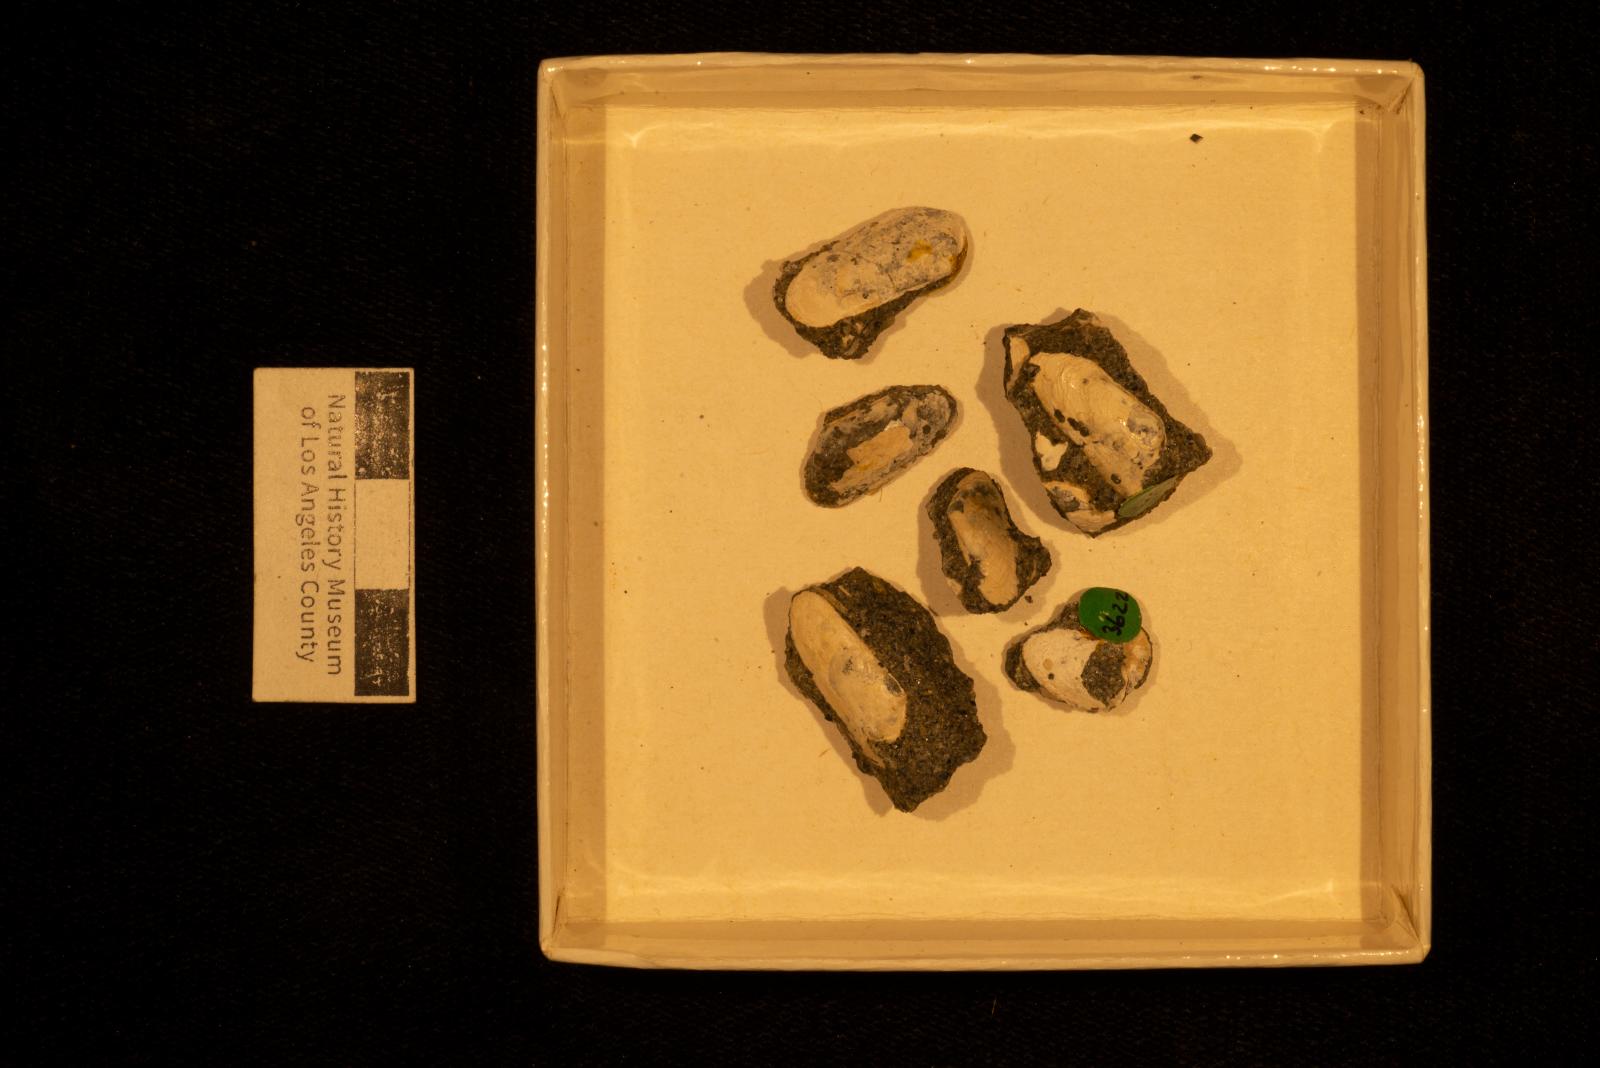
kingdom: Animalia
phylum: Mollusca
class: Bivalvia
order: Cardiida
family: Donacidae
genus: Adelodonax
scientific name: Adelodonax tectus
